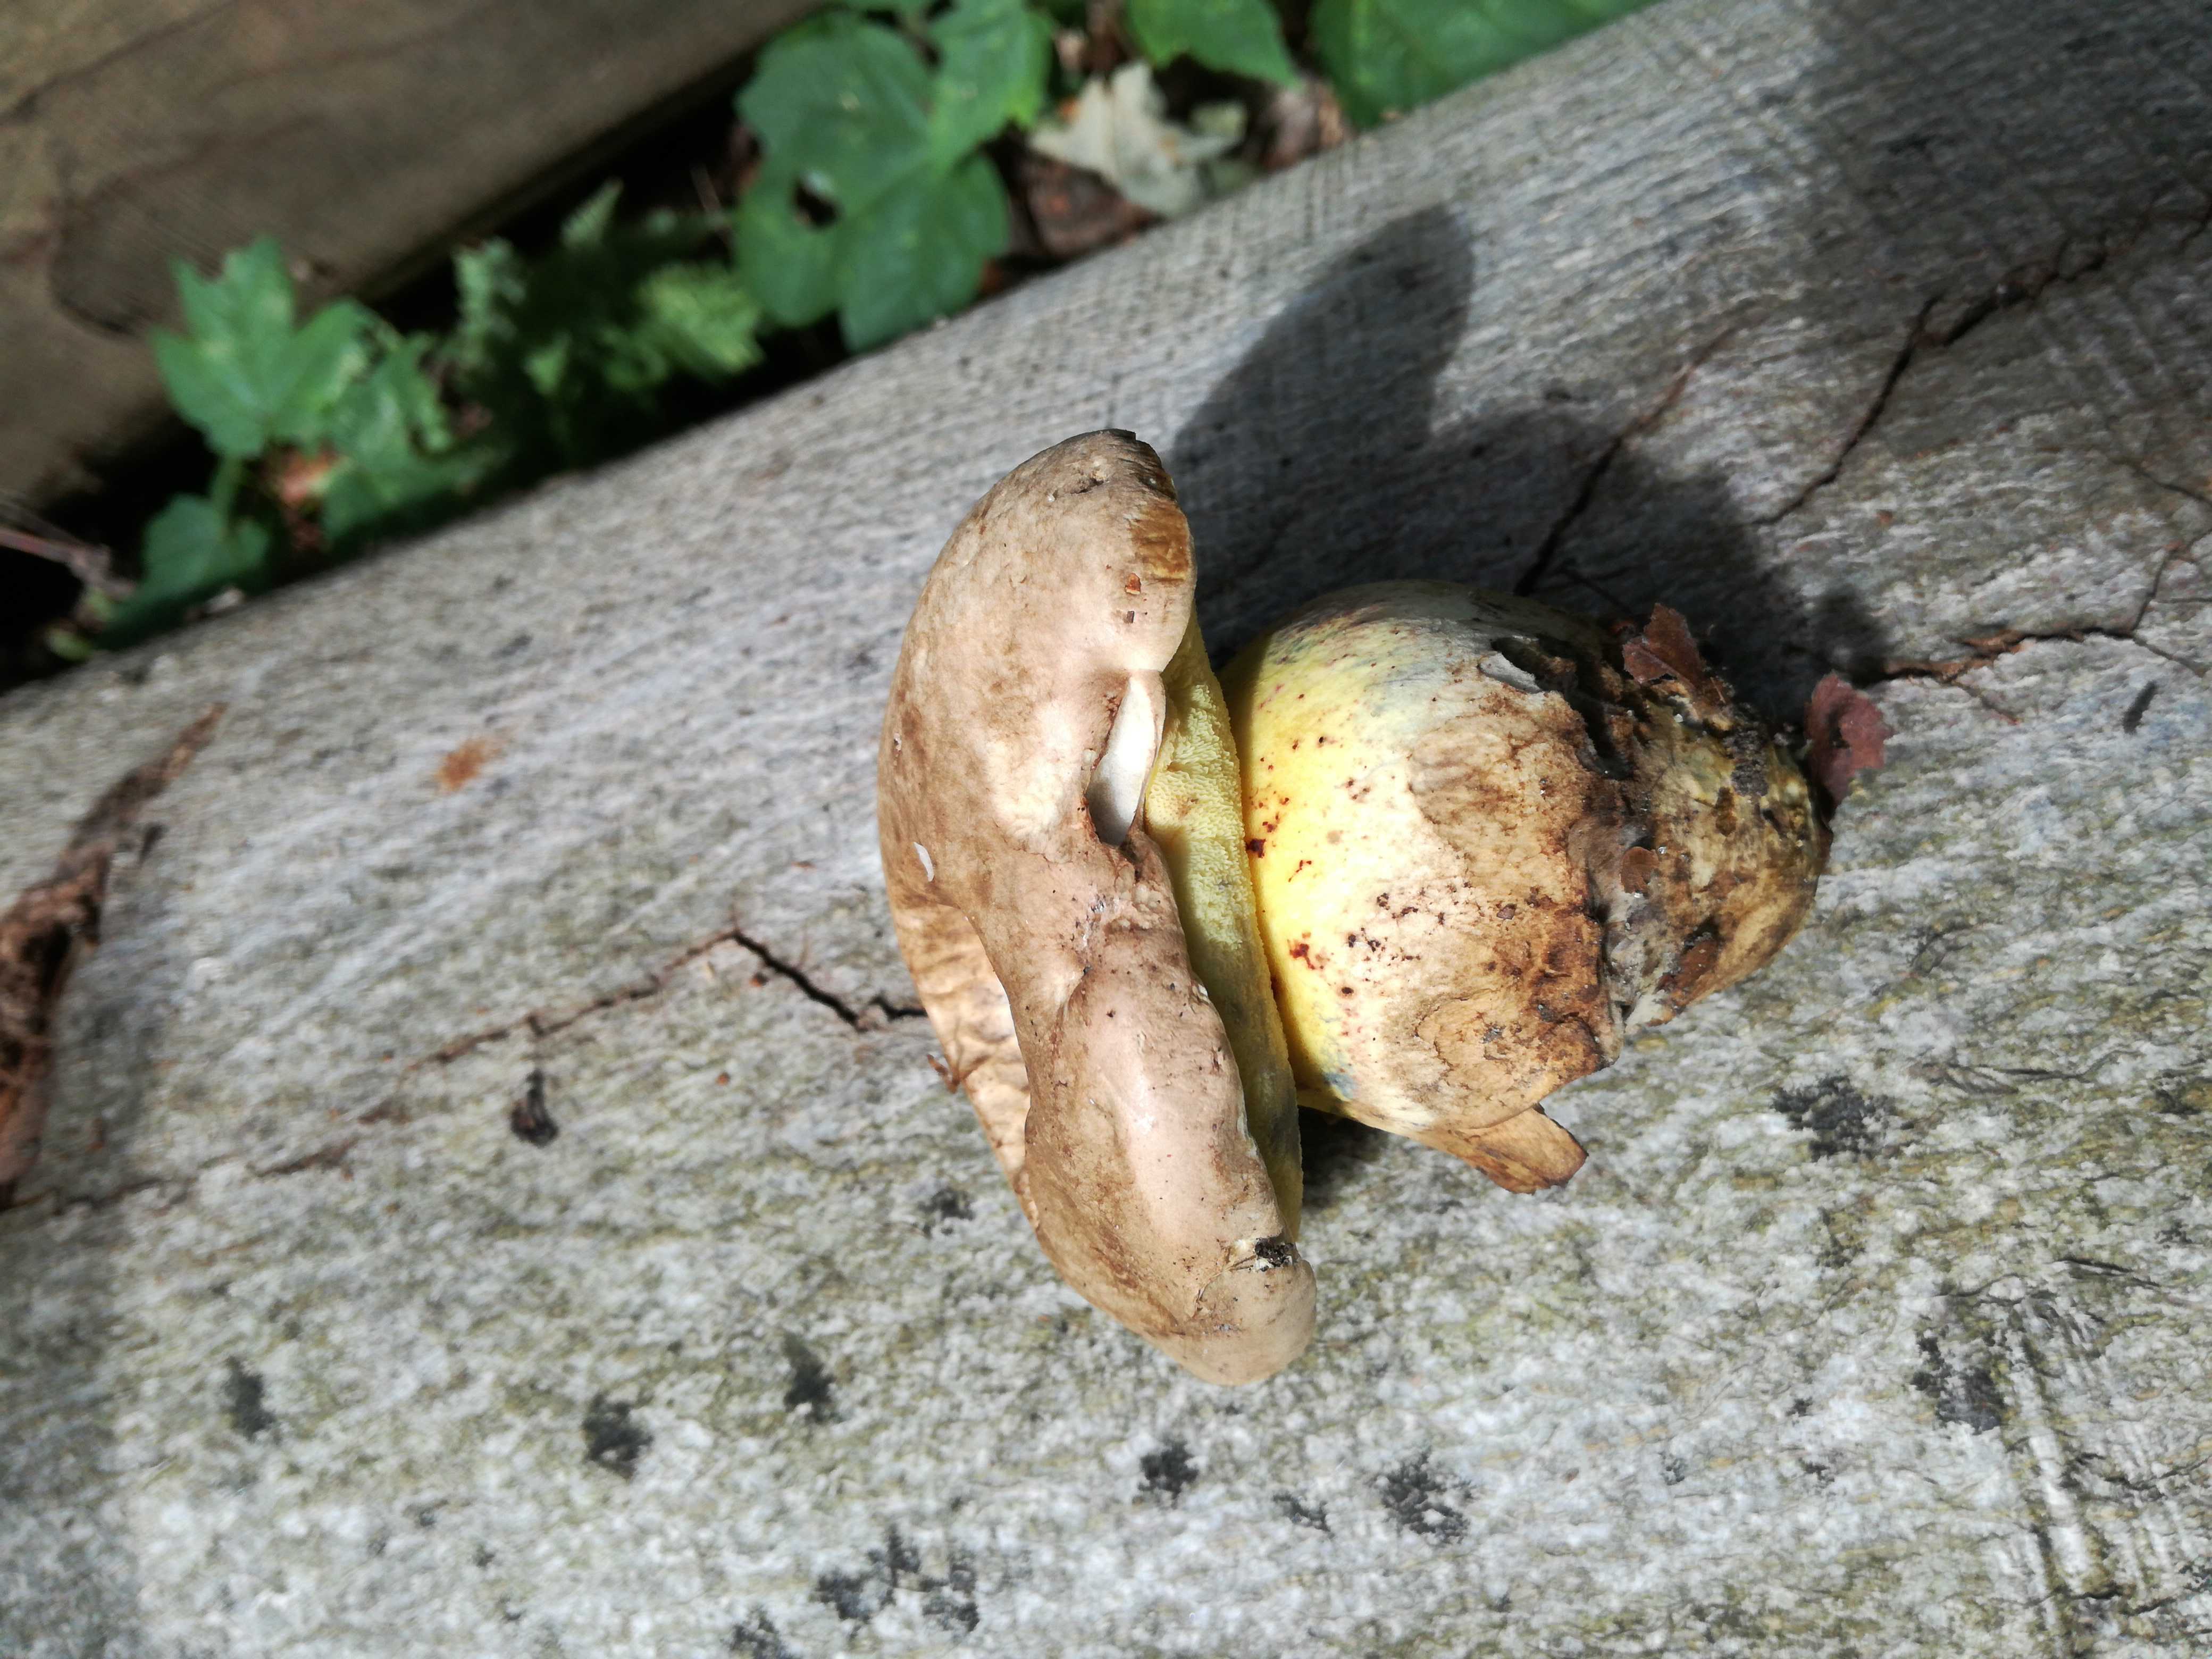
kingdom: Fungi
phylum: Basidiomycota
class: Agaricomycetes
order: Boletales
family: Boletaceae
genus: Caloboletus
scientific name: Caloboletus radicans
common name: rod-rørhat
